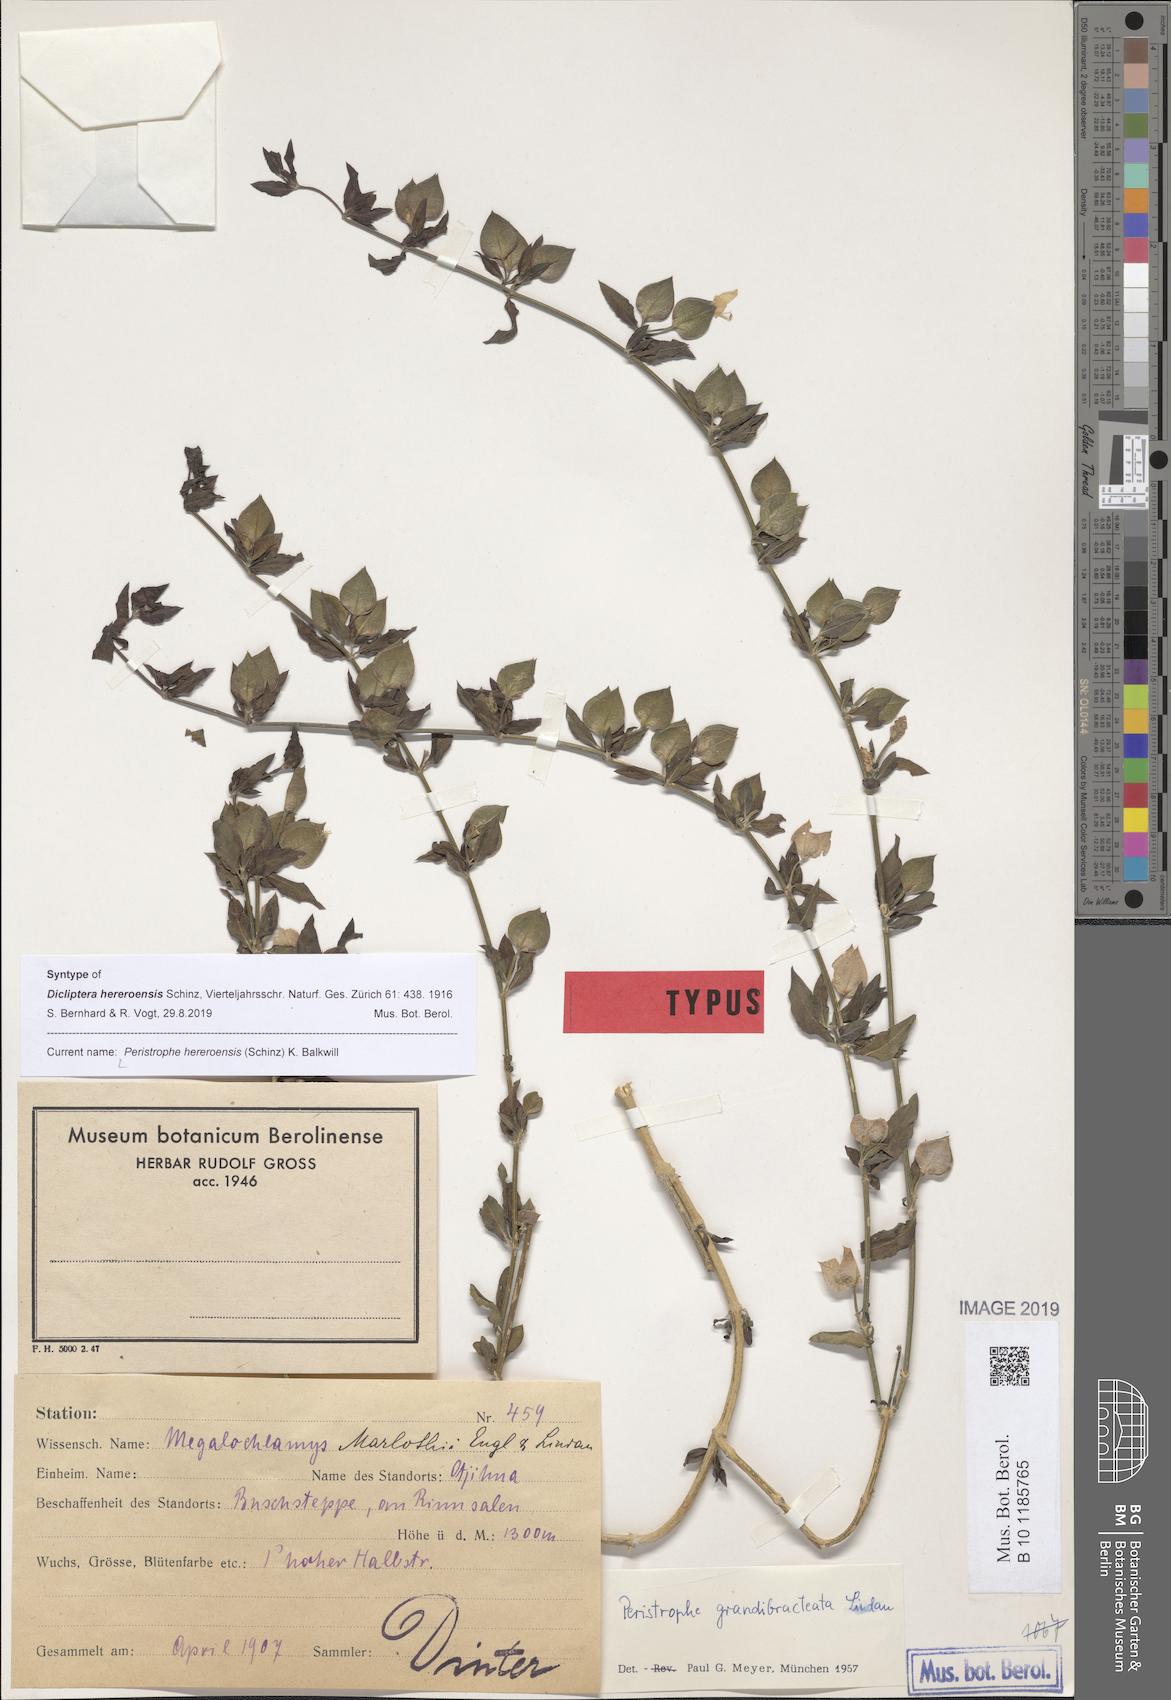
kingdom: Plantae
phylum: Tracheophyta
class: Magnoliopsida
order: Lamiales
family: Acanthaceae
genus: Dicliptera
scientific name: Dicliptera hereroensis
